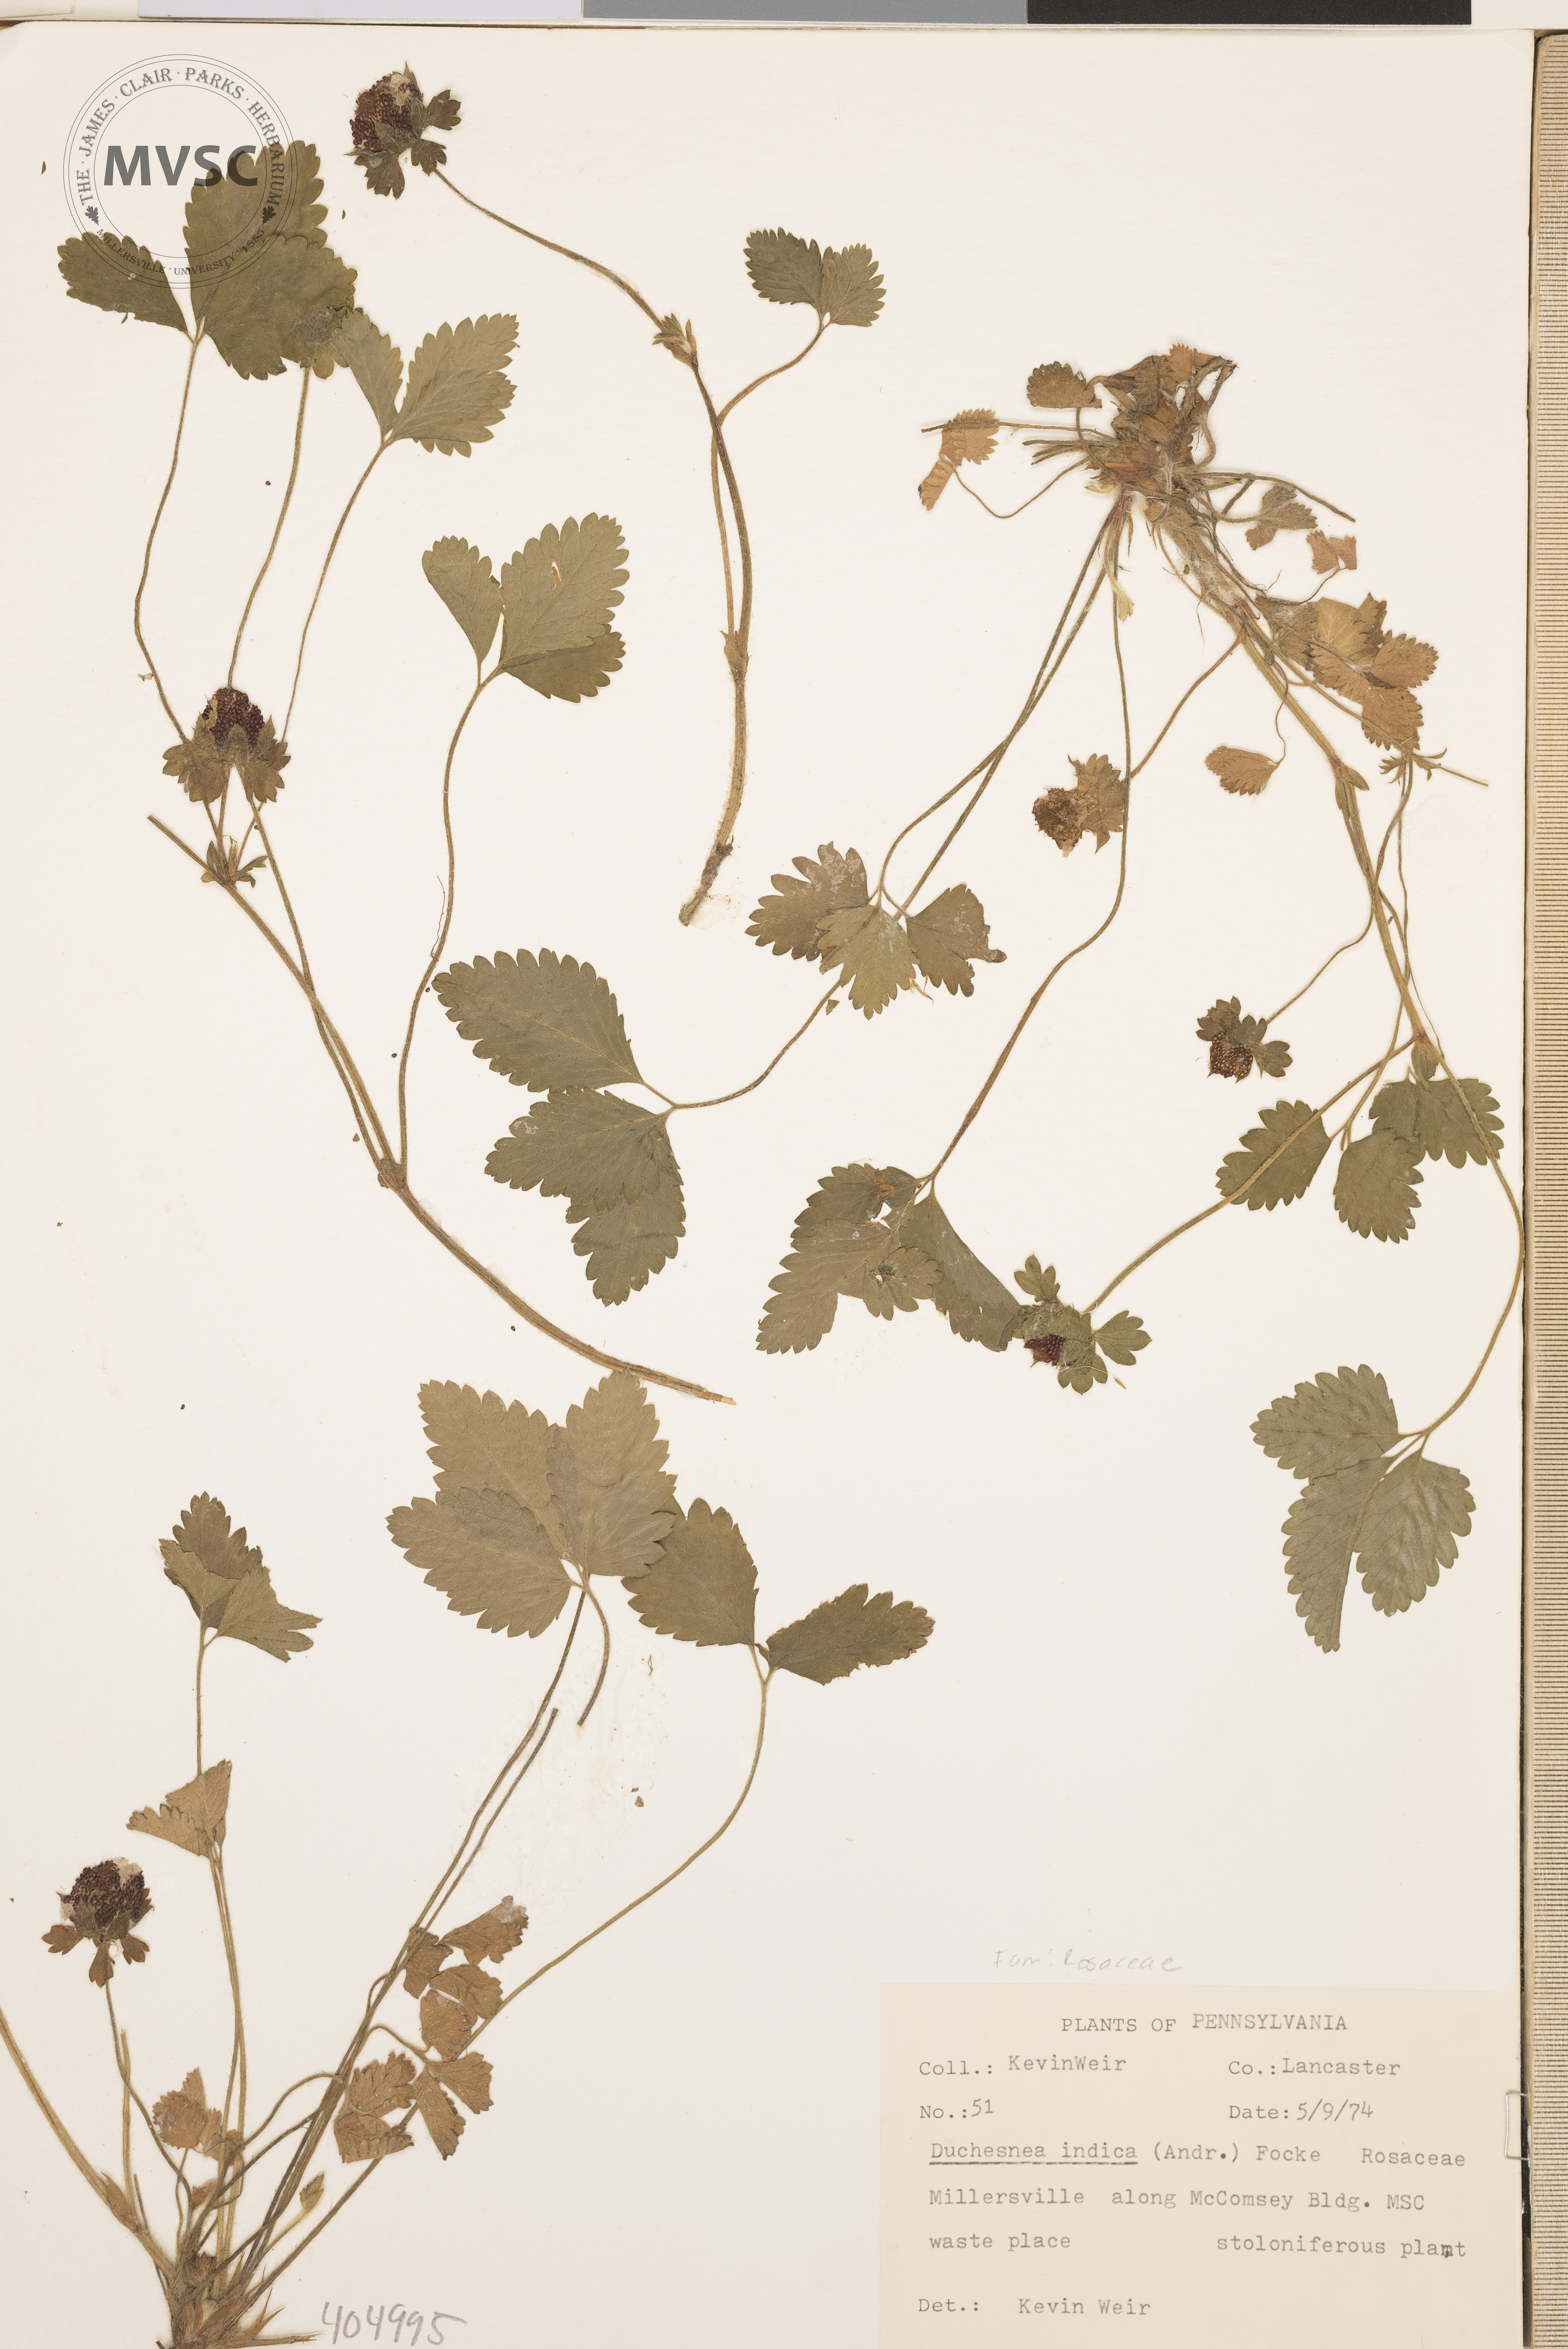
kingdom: Plantae
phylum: Tracheophyta
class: Magnoliopsida
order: Rosales
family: Rosaceae
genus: Potentilla
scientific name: Potentilla indica
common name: Indian-strawberry
